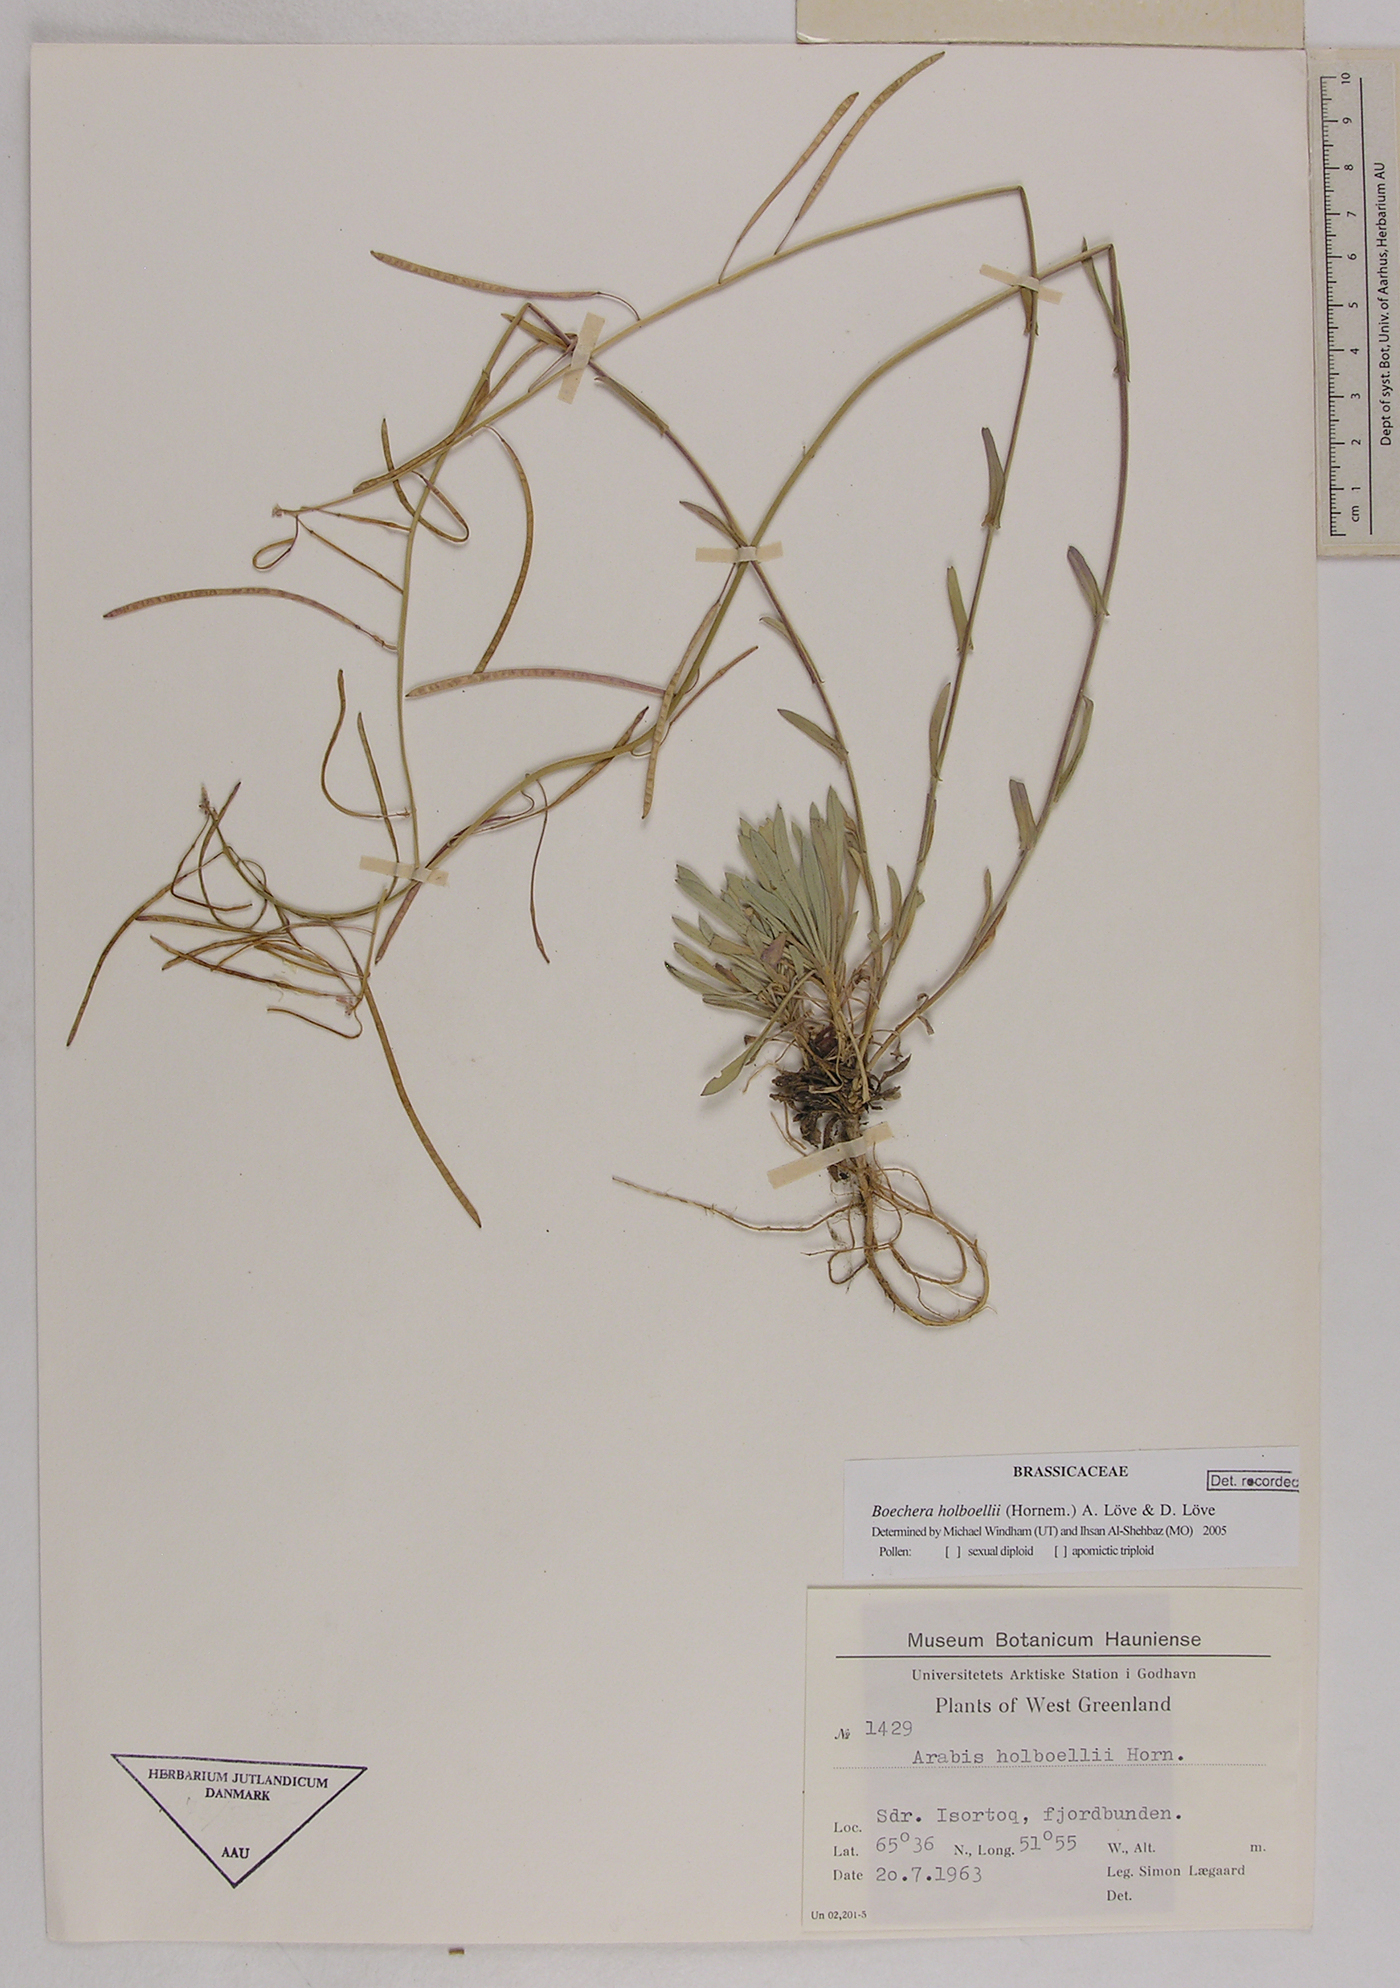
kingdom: Plantae
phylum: Tracheophyta
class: Magnoliopsida
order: Brassicales
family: Brassicaceae
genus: Boechera
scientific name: Boechera holboellii
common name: Holboell's rockcress
